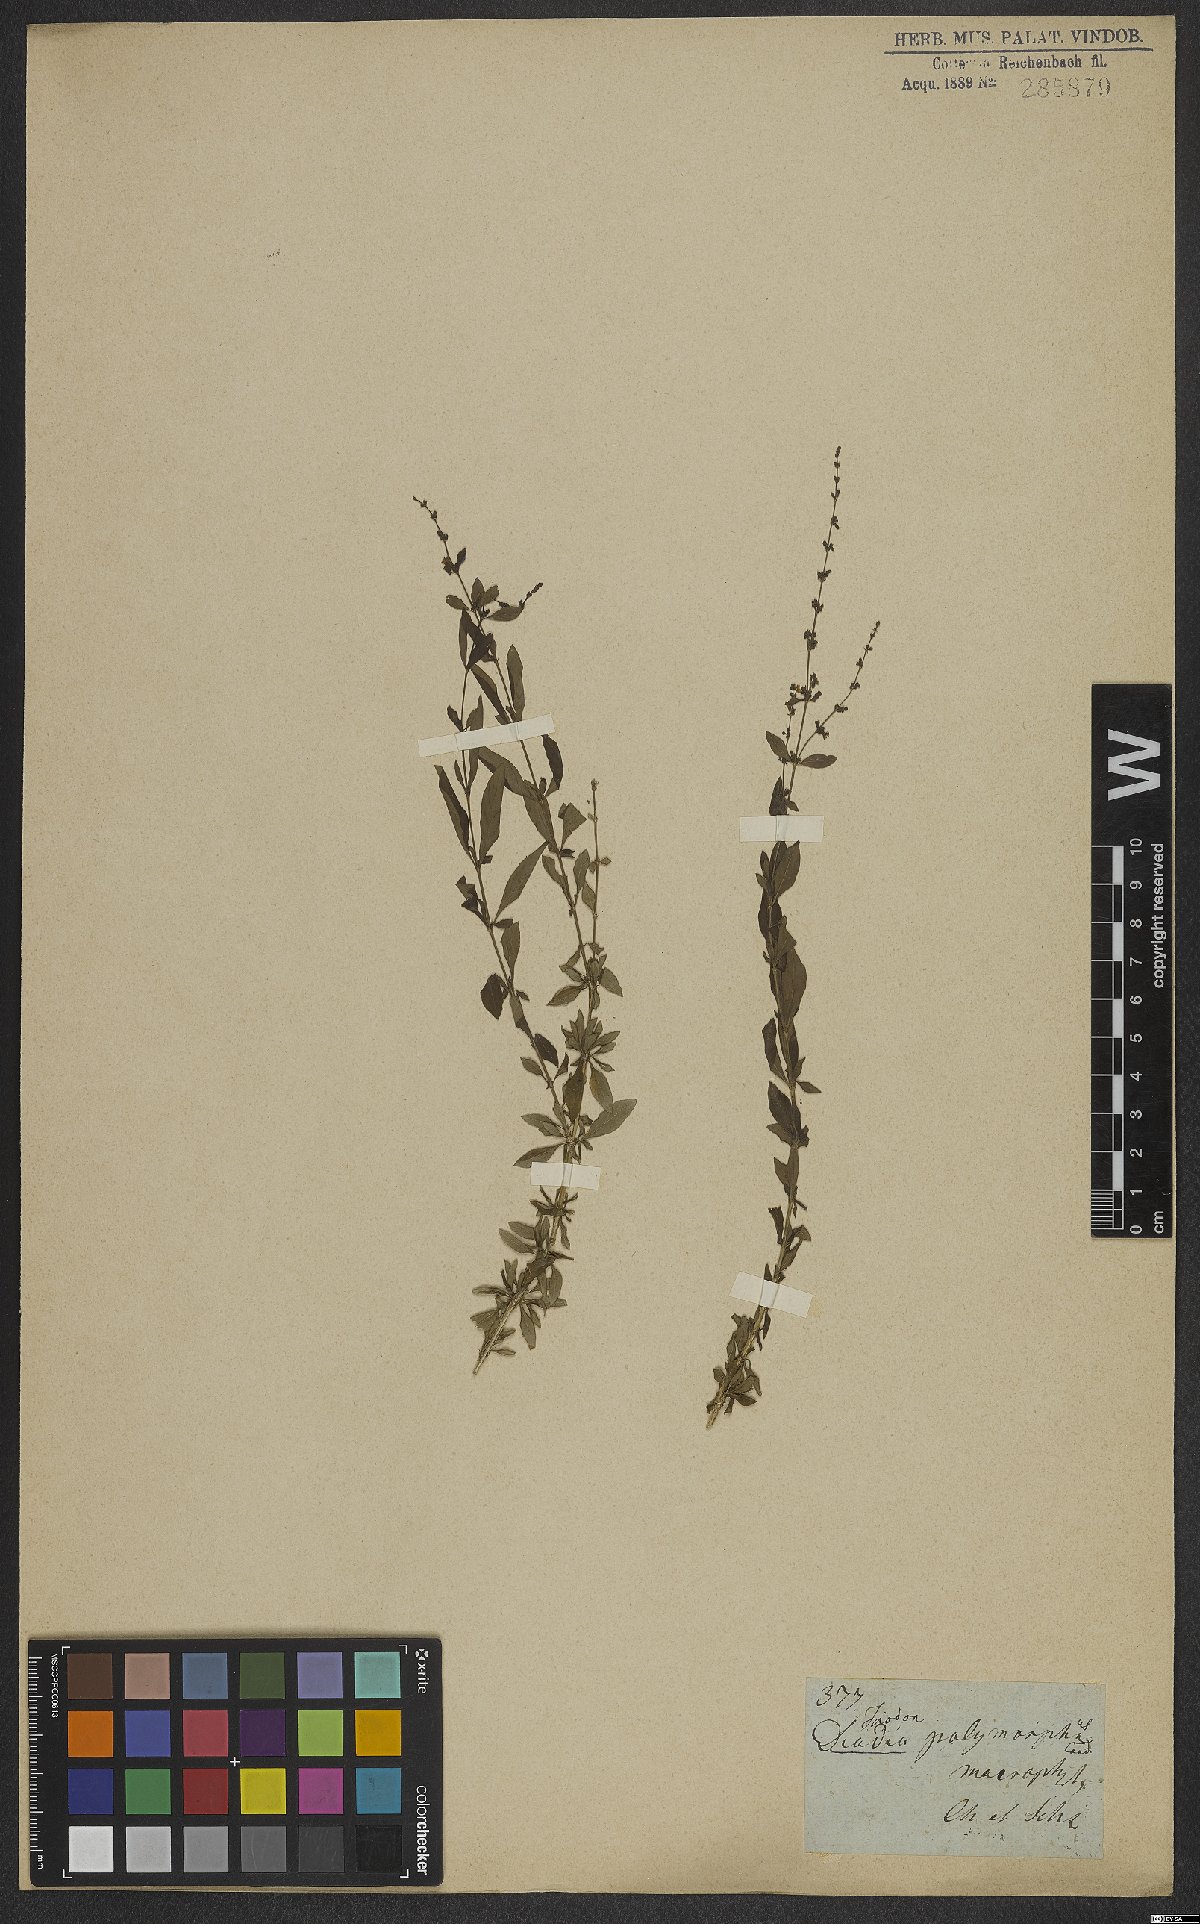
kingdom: Plantae
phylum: Tracheophyta
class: Magnoliopsida
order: Gentianales
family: Rubiaceae
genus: Galianthe
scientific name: Galianthe brasiliensis
